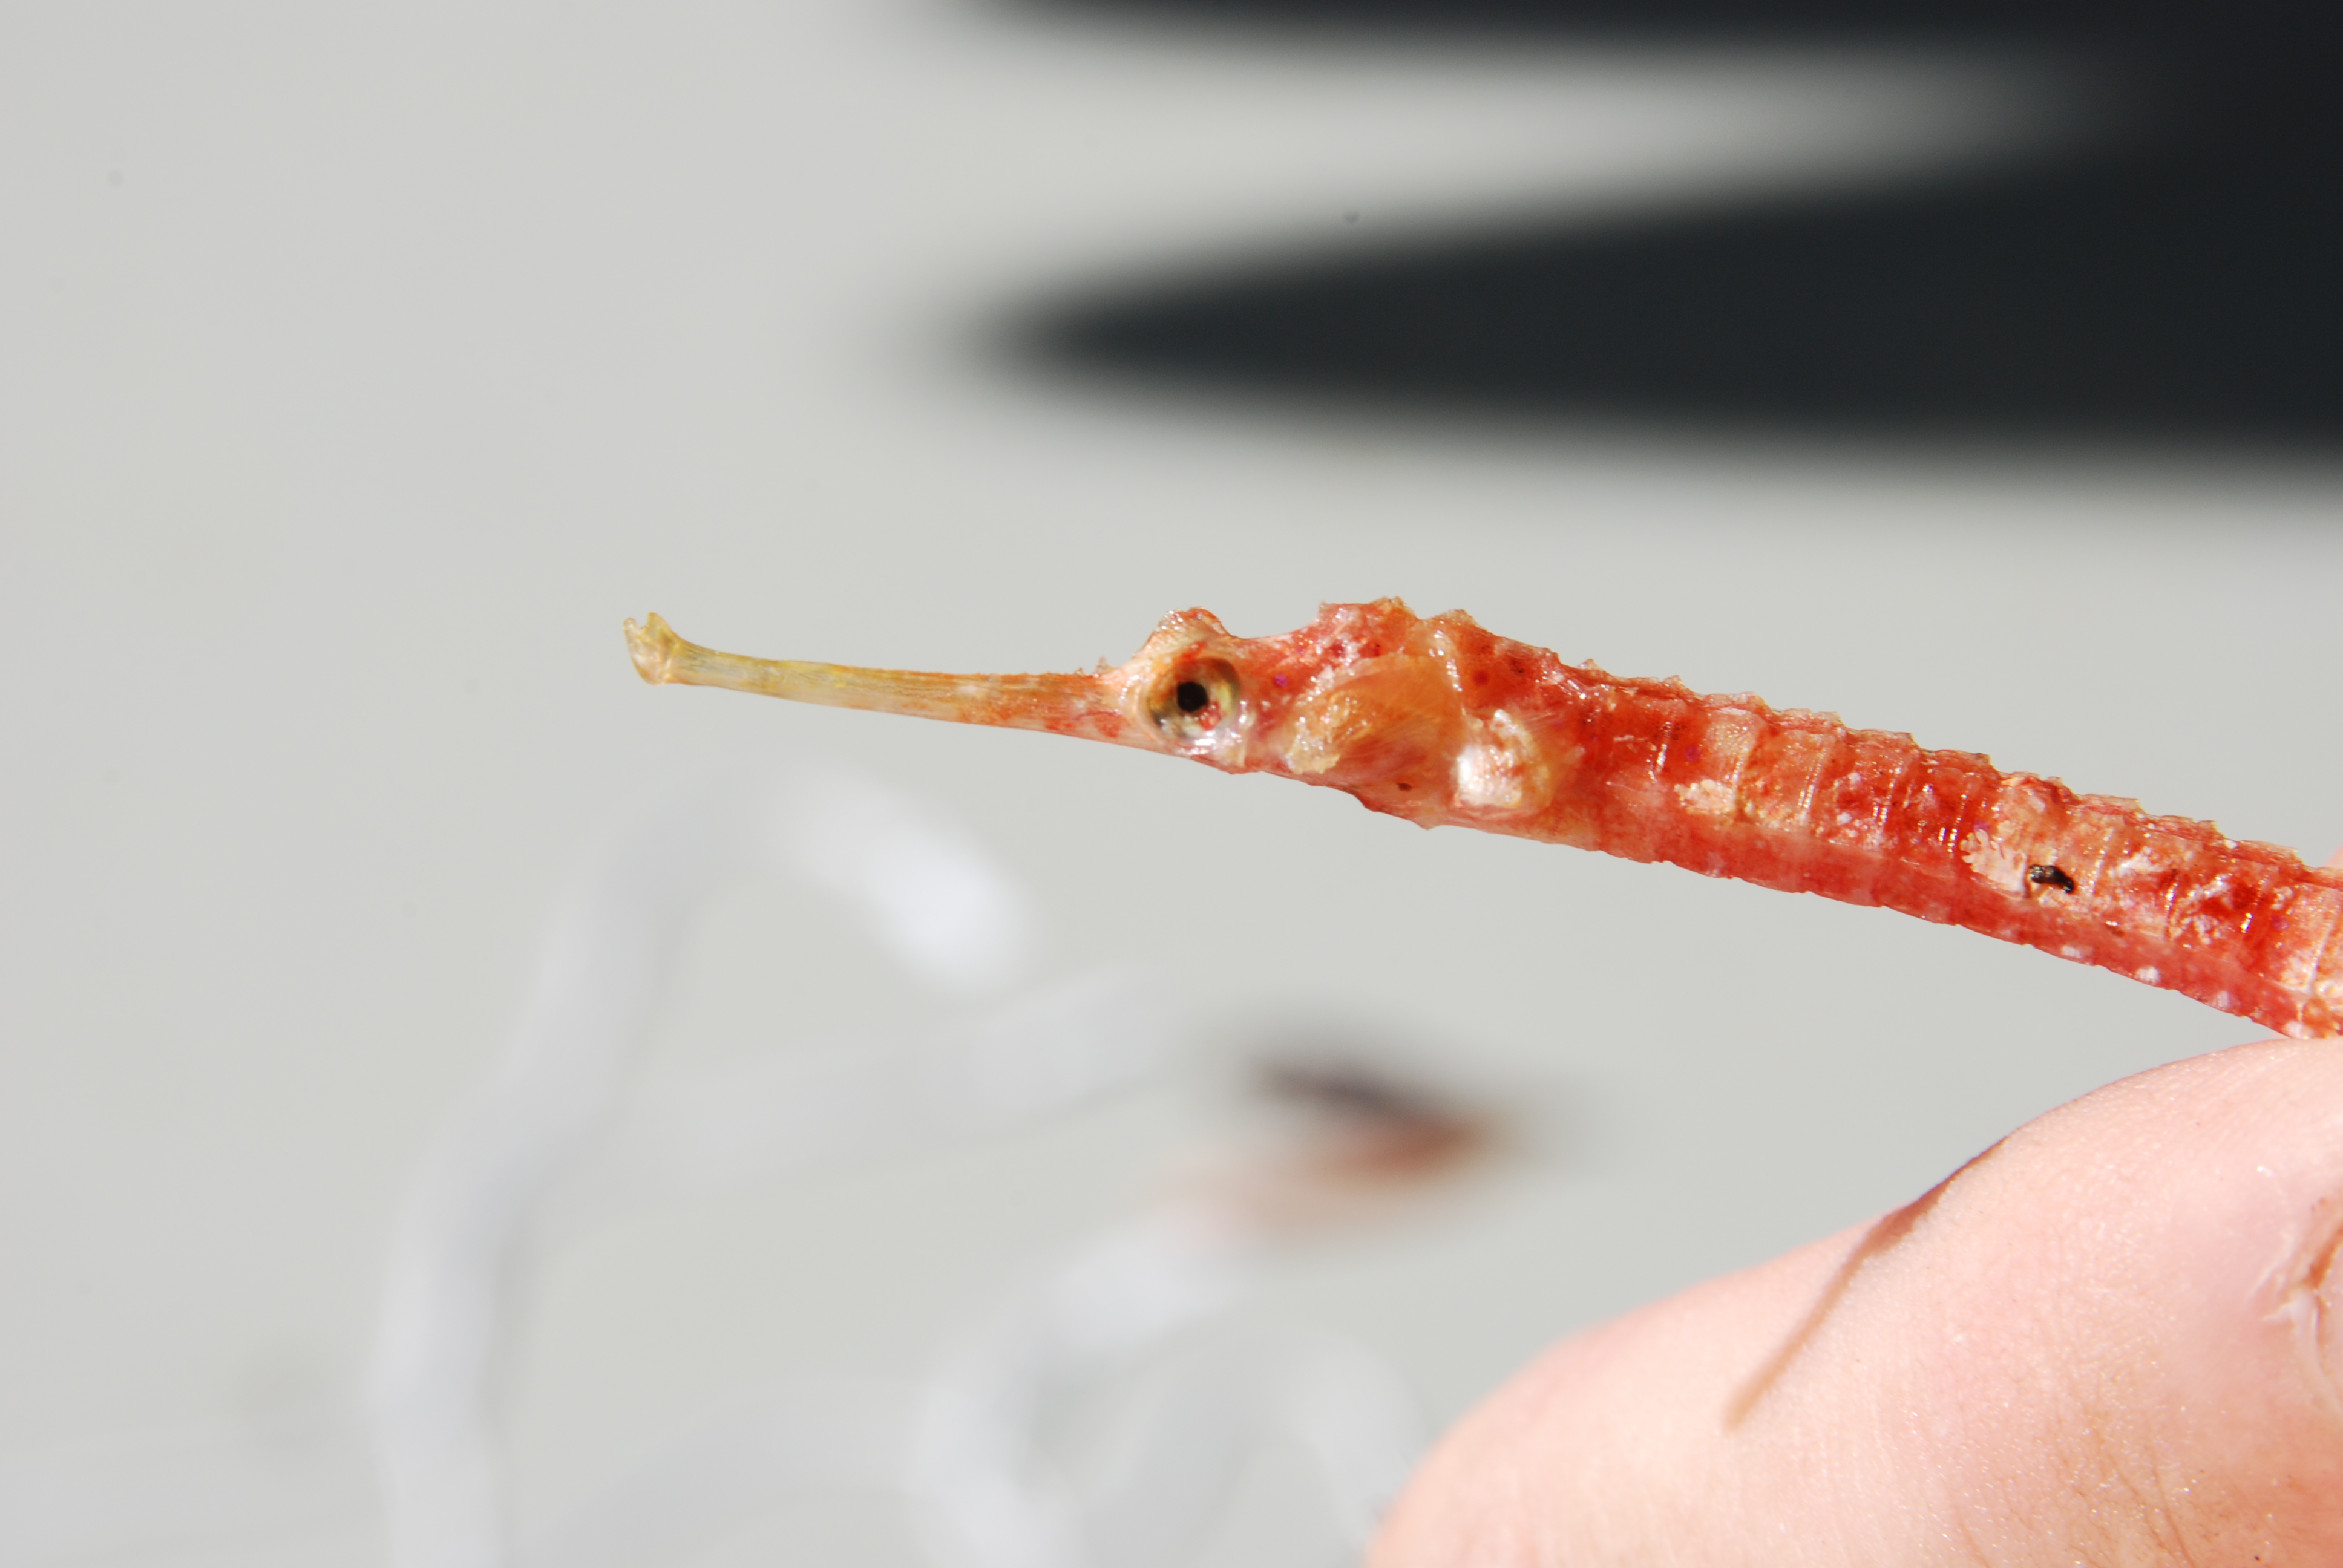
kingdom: Animalia
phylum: Chordata
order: Syngnathiformes
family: Syngnathidae
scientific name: Syngnathidae
